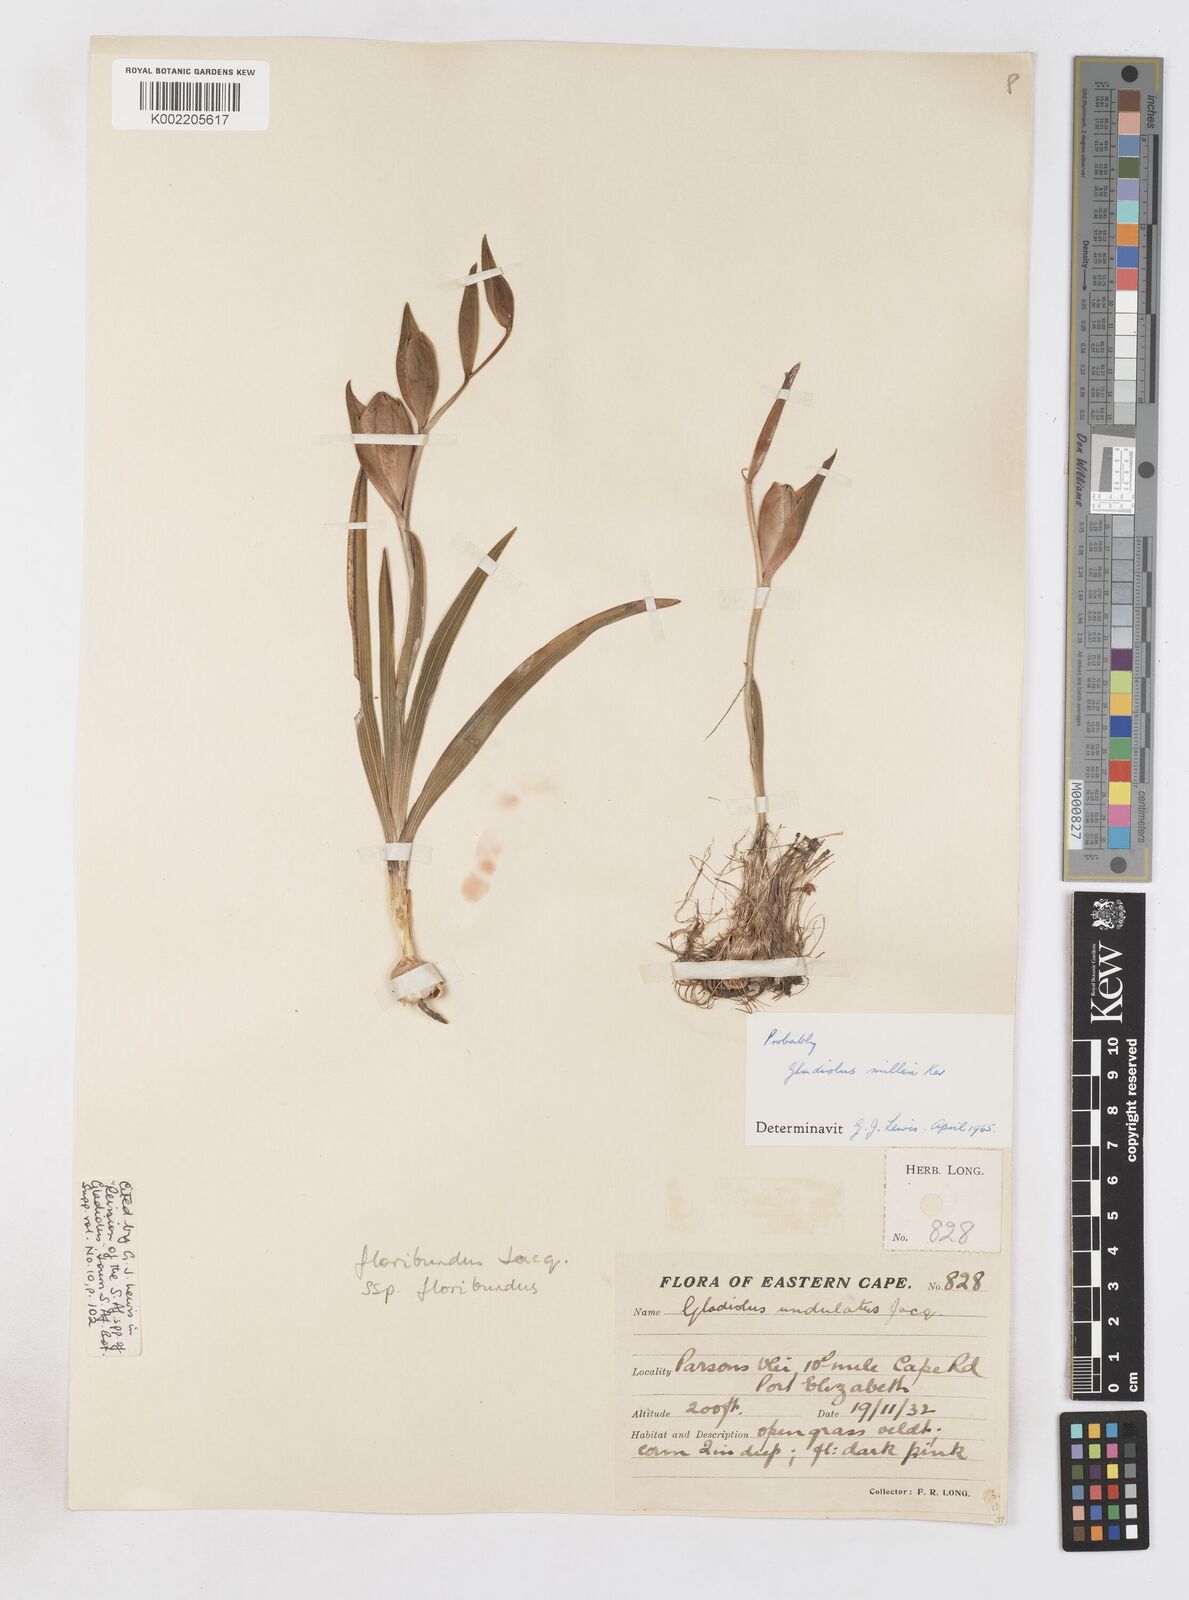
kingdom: Plantae
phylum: Tracheophyta
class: Liliopsida
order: Asparagales
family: Iridaceae
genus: Gladiolus
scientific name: Gladiolus floribundus
